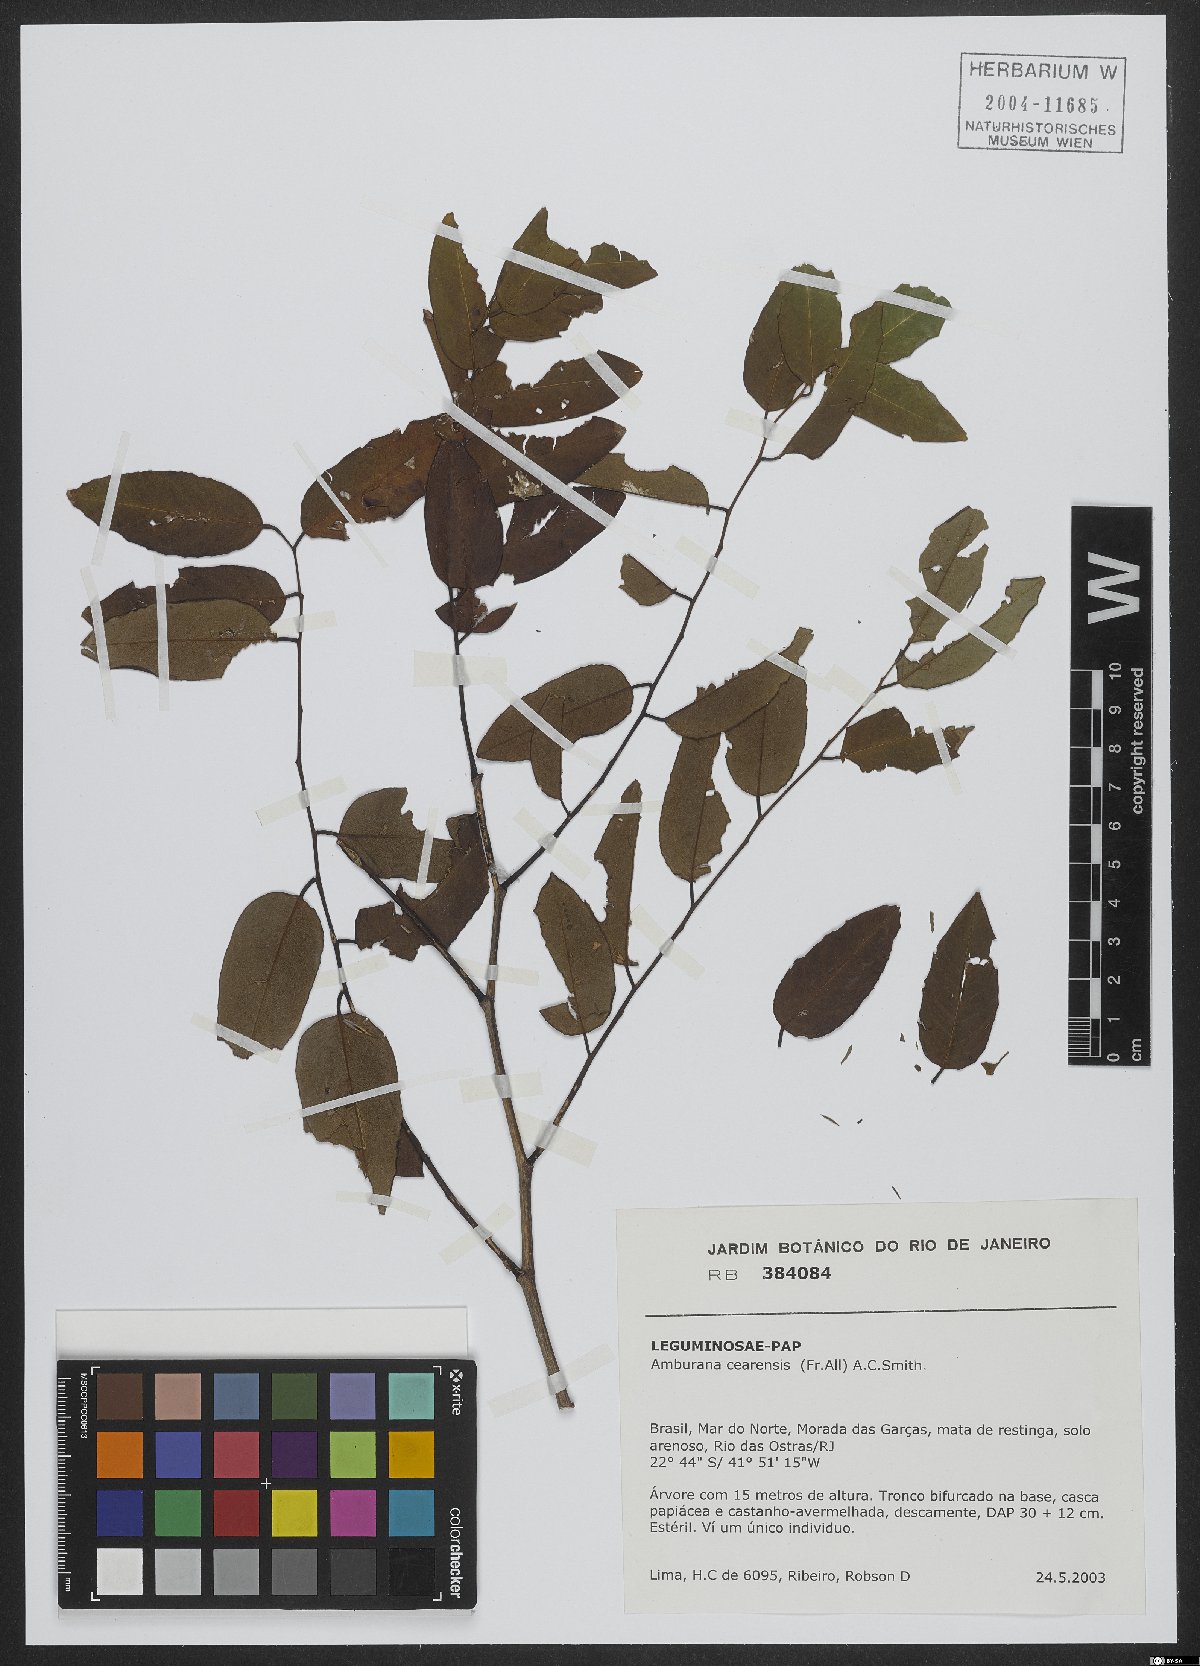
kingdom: Plantae
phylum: Tracheophyta
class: Magnoliopsida
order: Fabales
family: Fabaceae
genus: Amburana
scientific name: Amburana acreana
